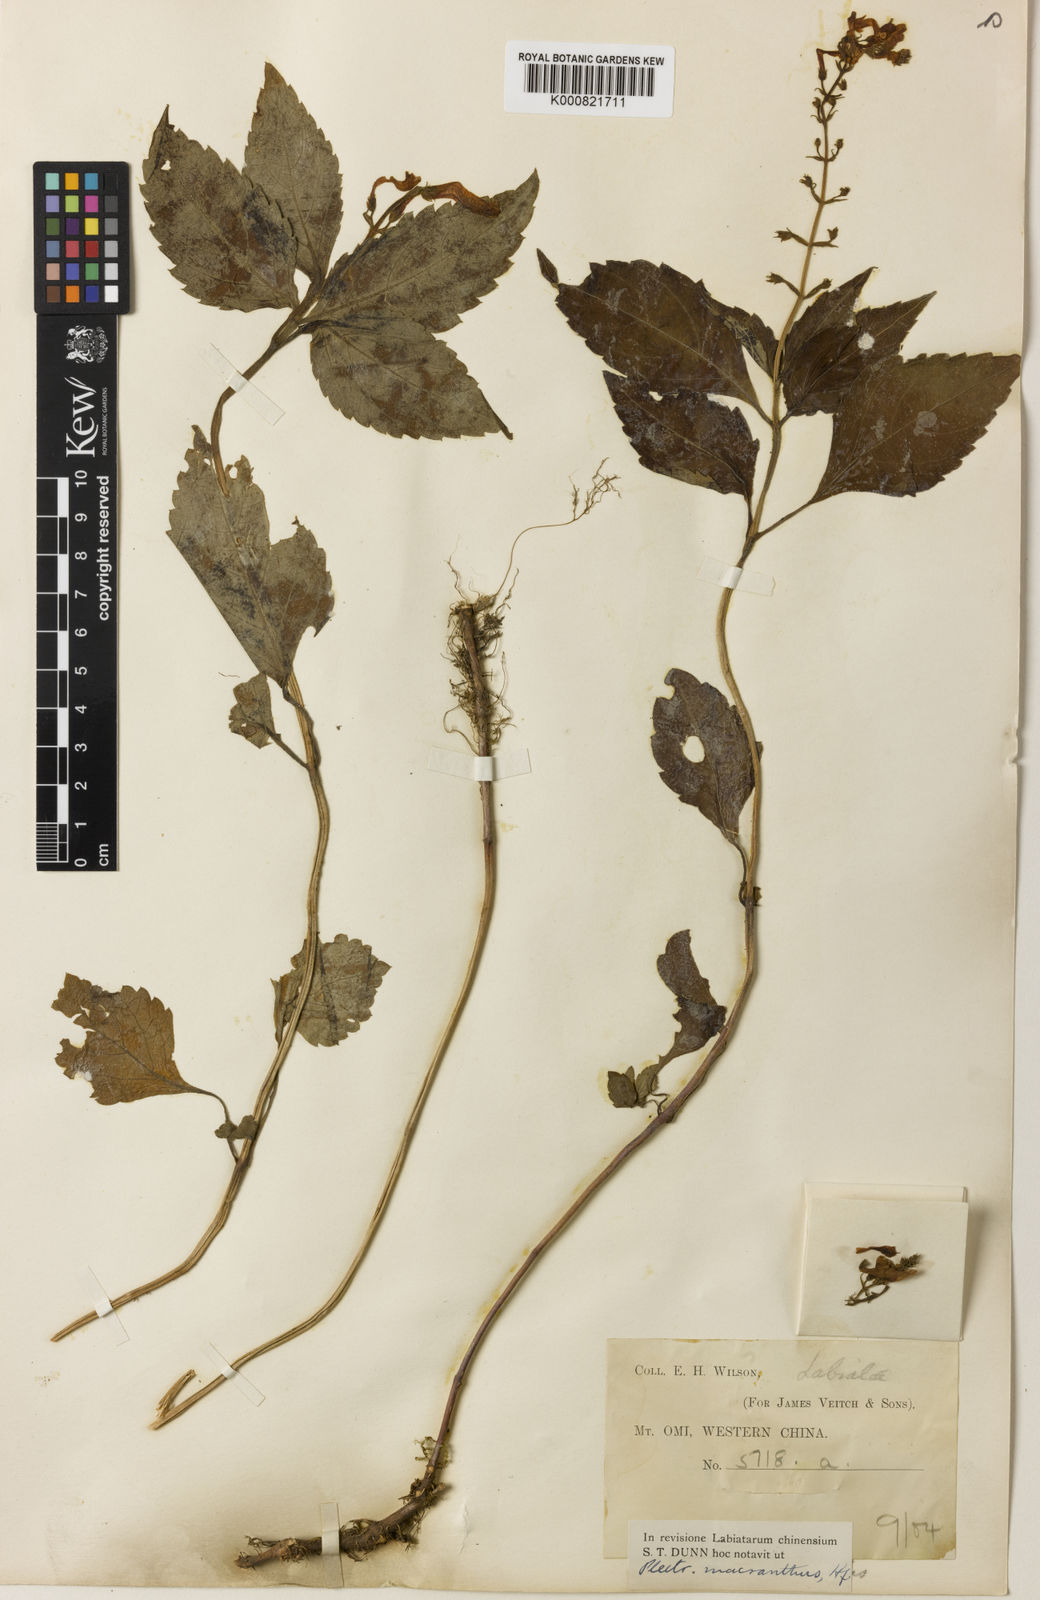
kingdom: Plantae
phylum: Tracheophyta
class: Magnoliopsida
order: Lamiales
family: Lamiaceae
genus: Isodon
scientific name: Isodon
